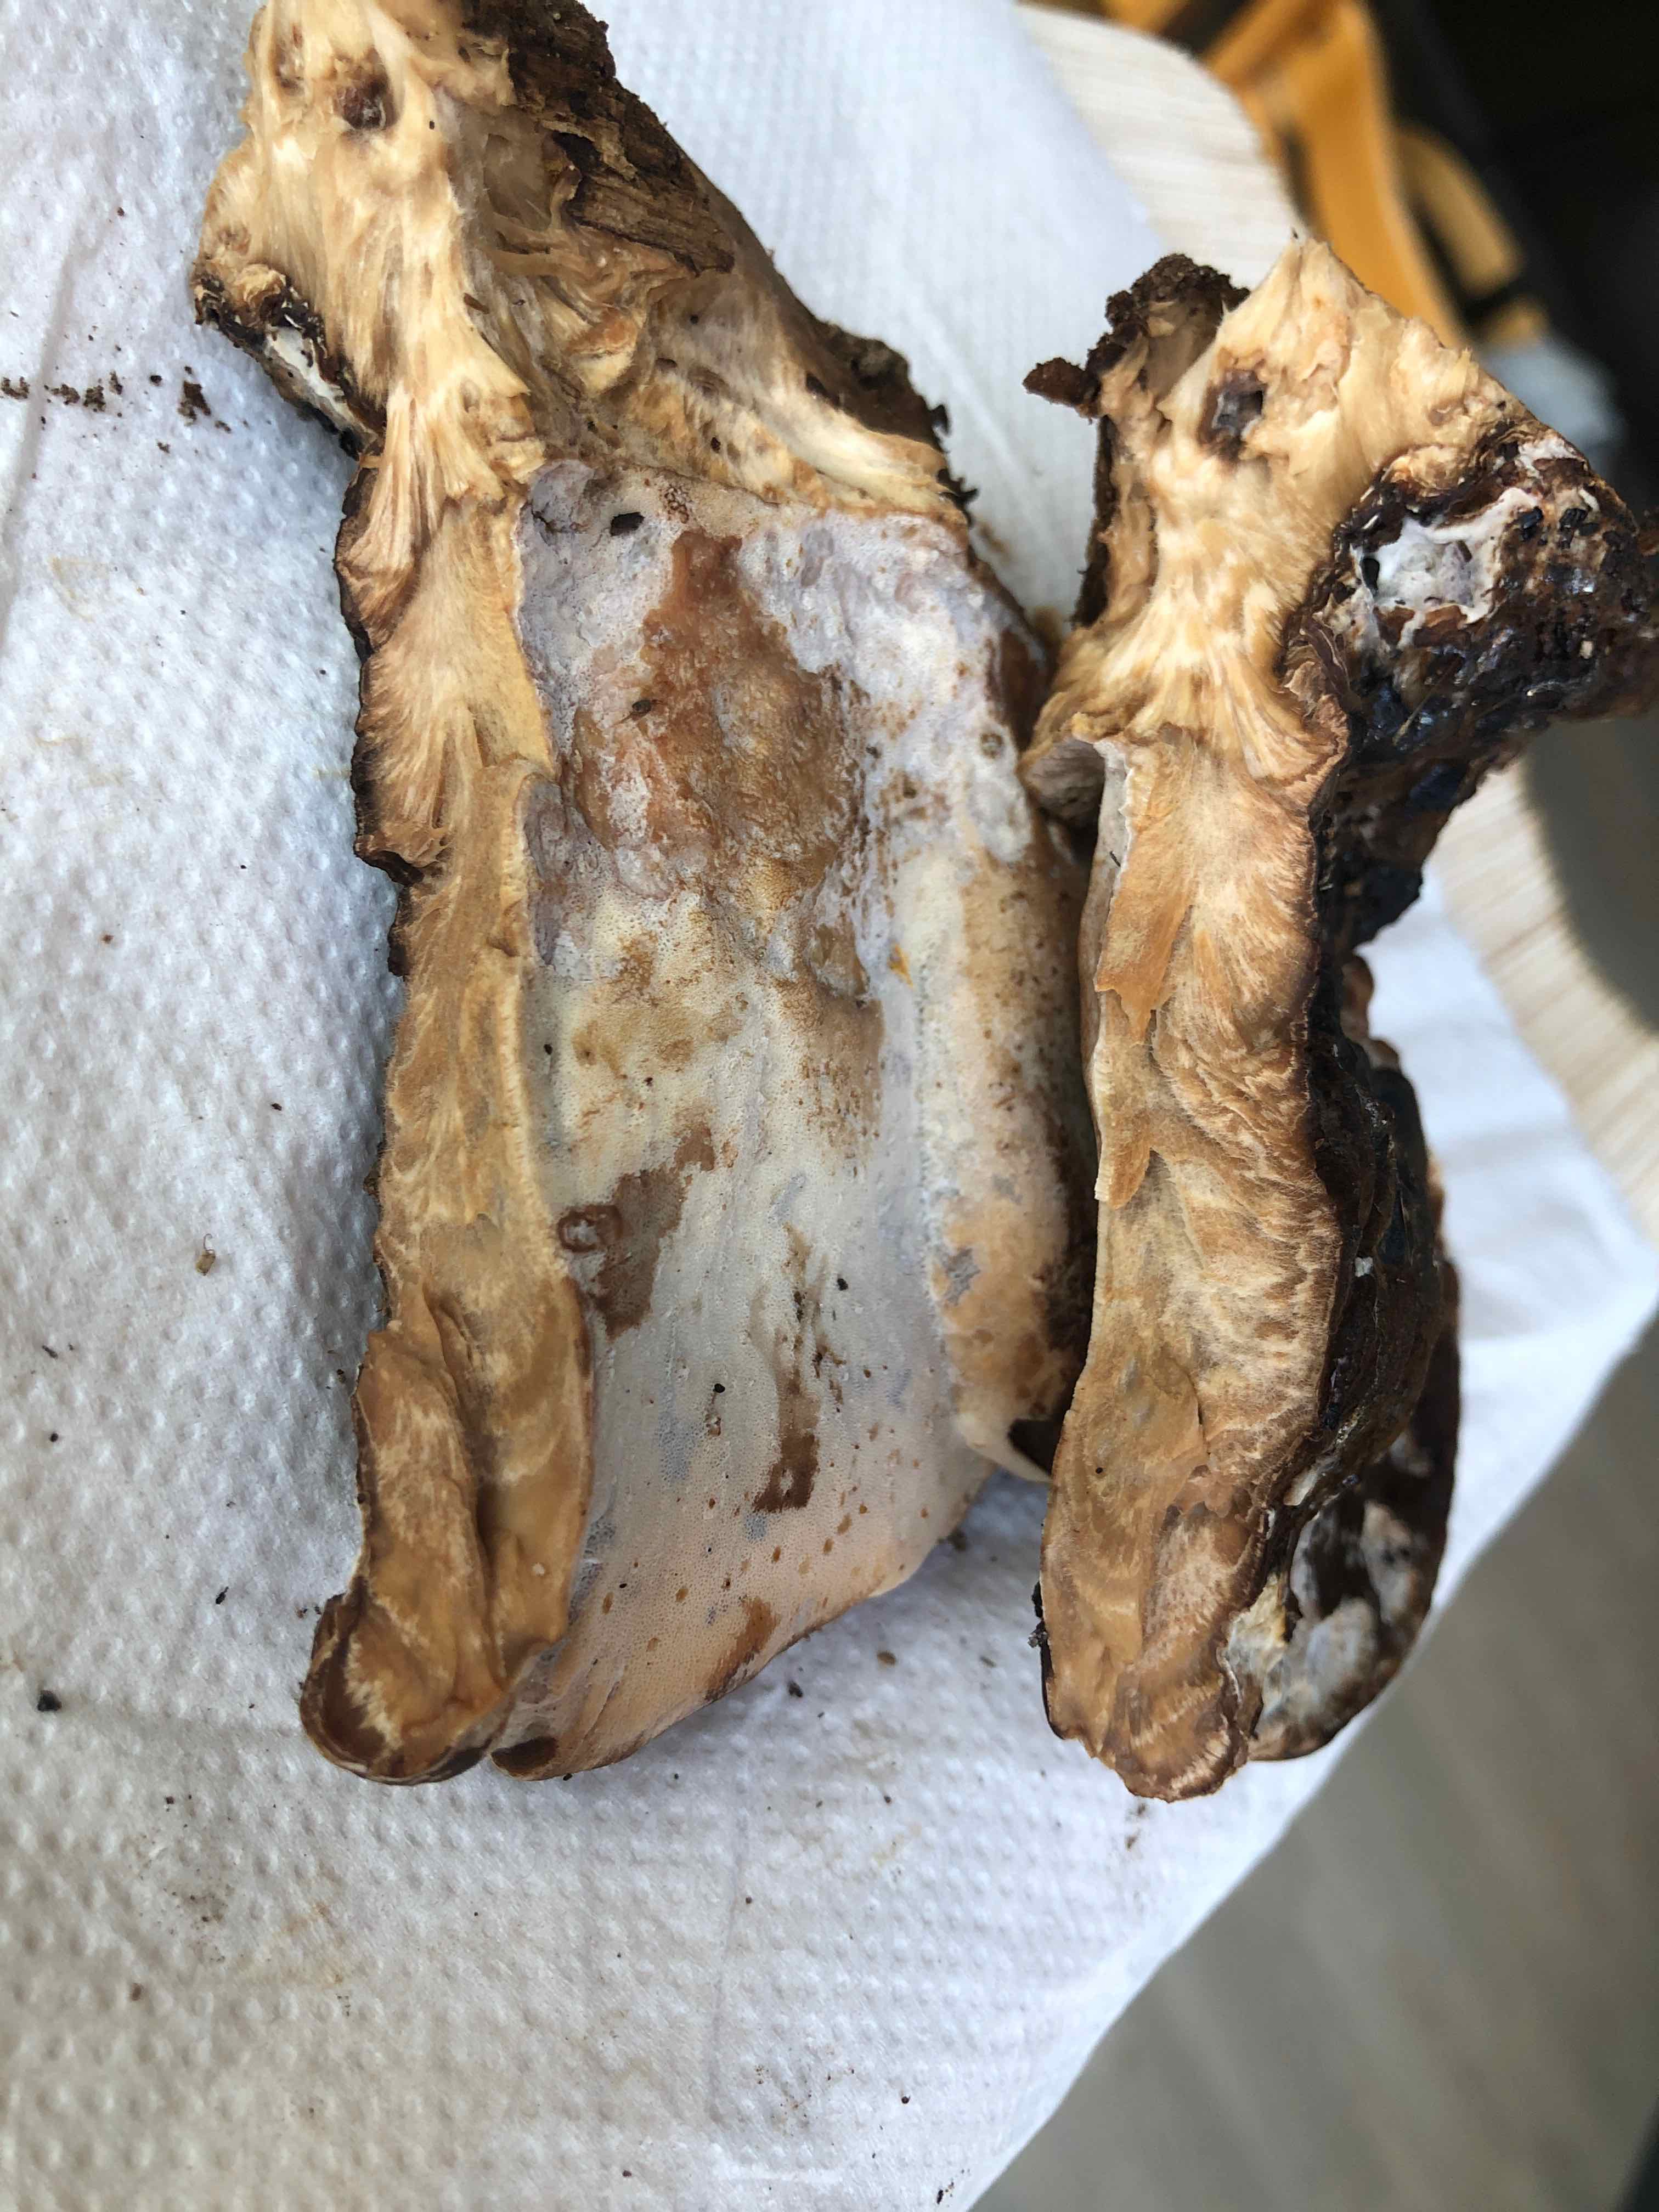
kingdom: Fungi
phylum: Basidiomycota
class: Agaricomycetes
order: Polyporales
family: Ischnodermataceae
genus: Ischnoderma
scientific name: Ischnoderma resinosum
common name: løv-tjæreporesvamp
